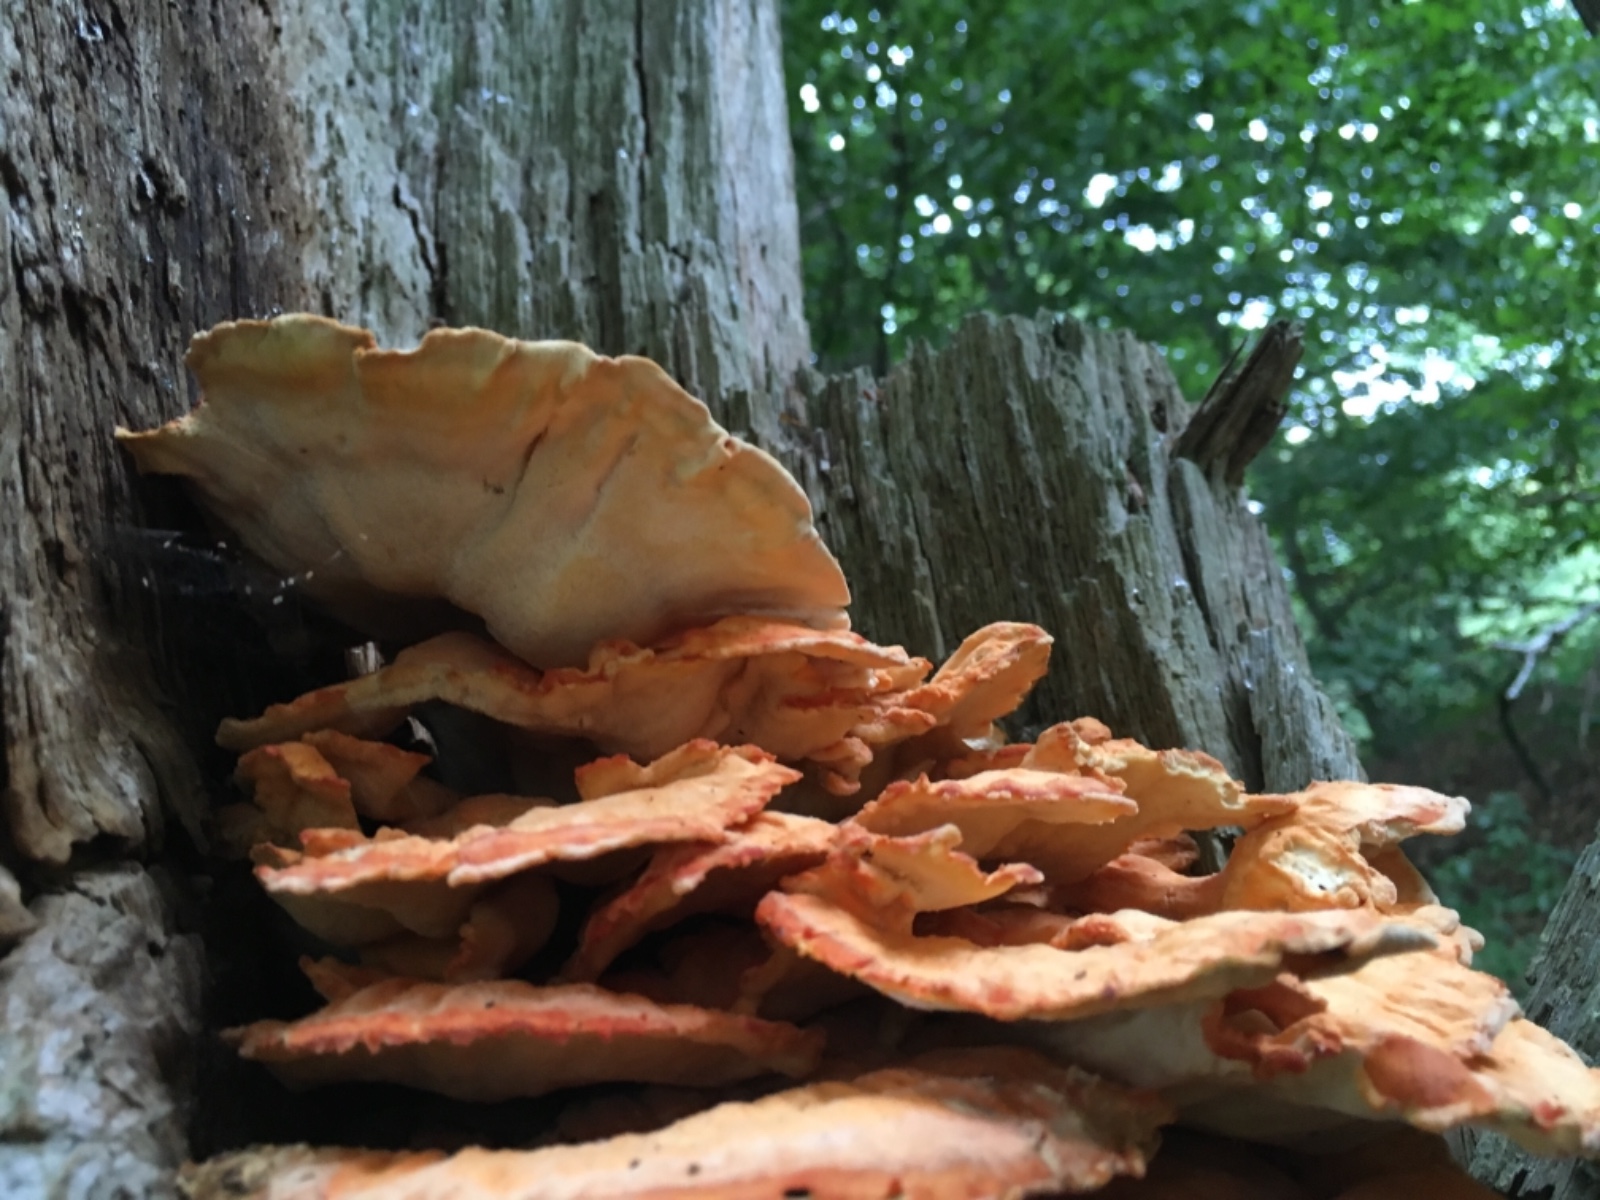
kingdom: Fungi
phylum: Basidiomycota
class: Agaricomycetes
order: Polyporales
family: Laetiporaceae
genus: Laetiporus
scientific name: Laetiporus sulphureus
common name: svovlporesvamp
